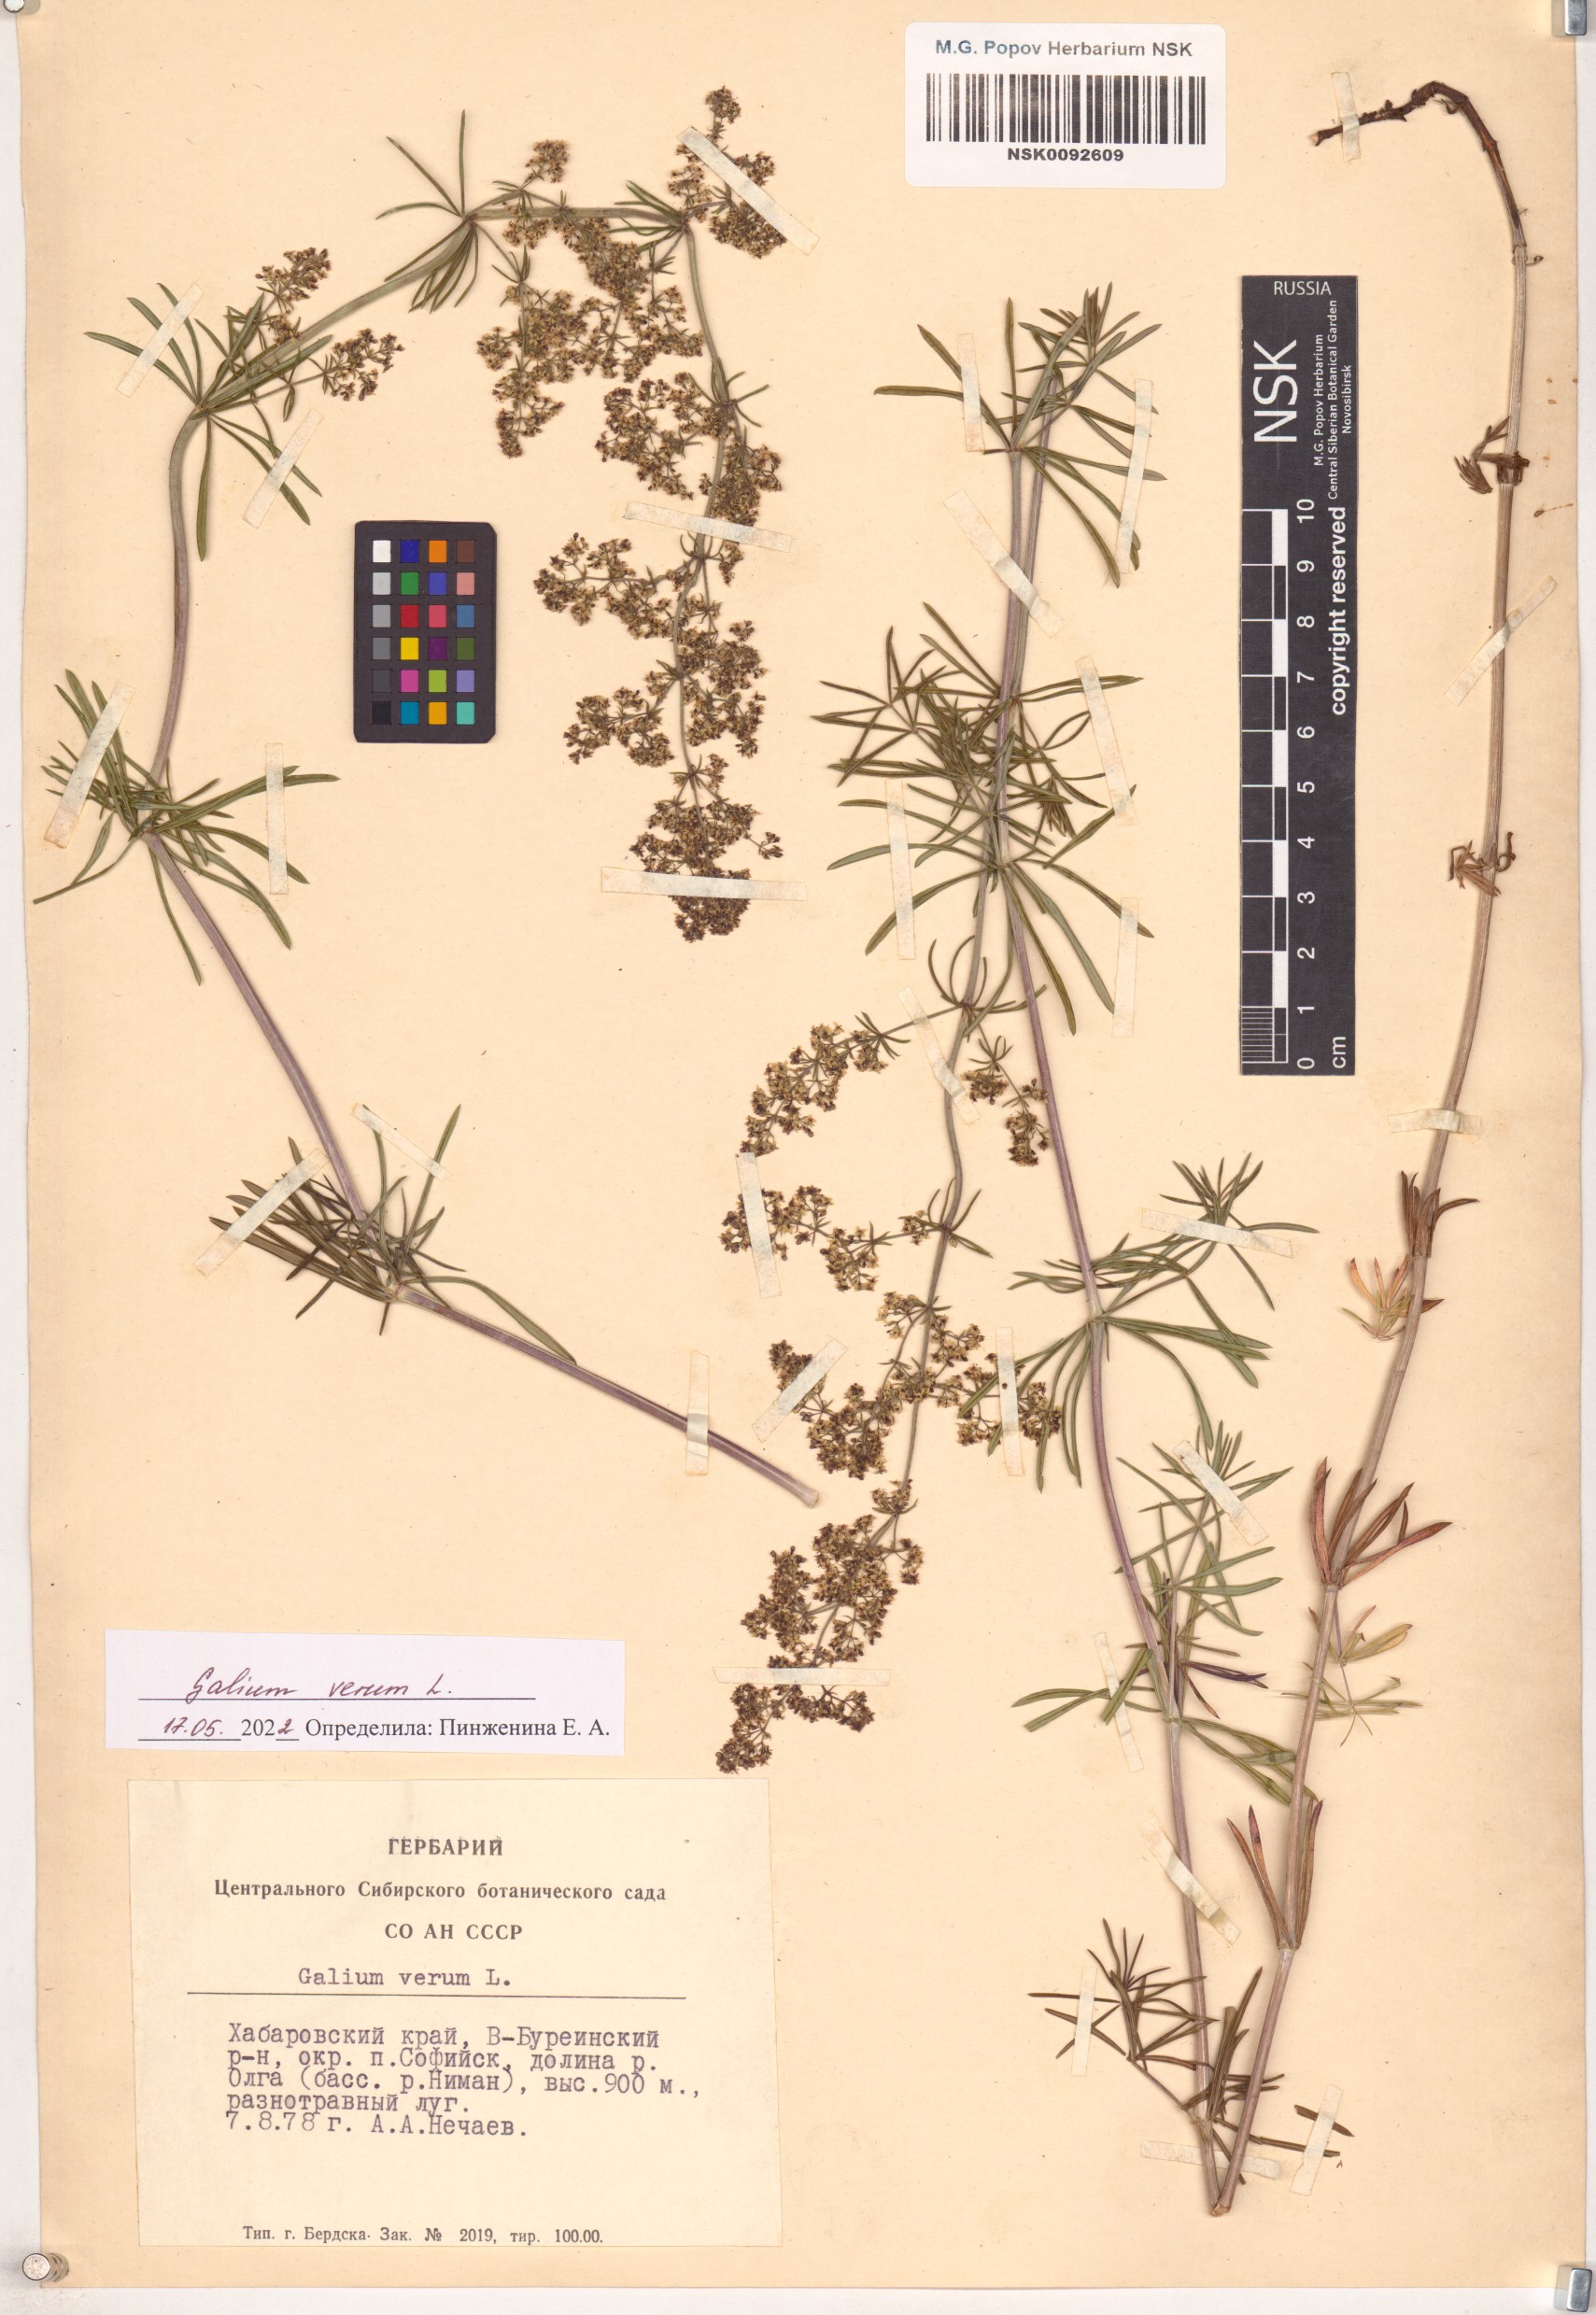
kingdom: Plantae
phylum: Tracheophyta
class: Magnoliopsida
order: Gentianales
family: Rubiaceae
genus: Galium
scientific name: Galium verum
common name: Lady's bedstraw
